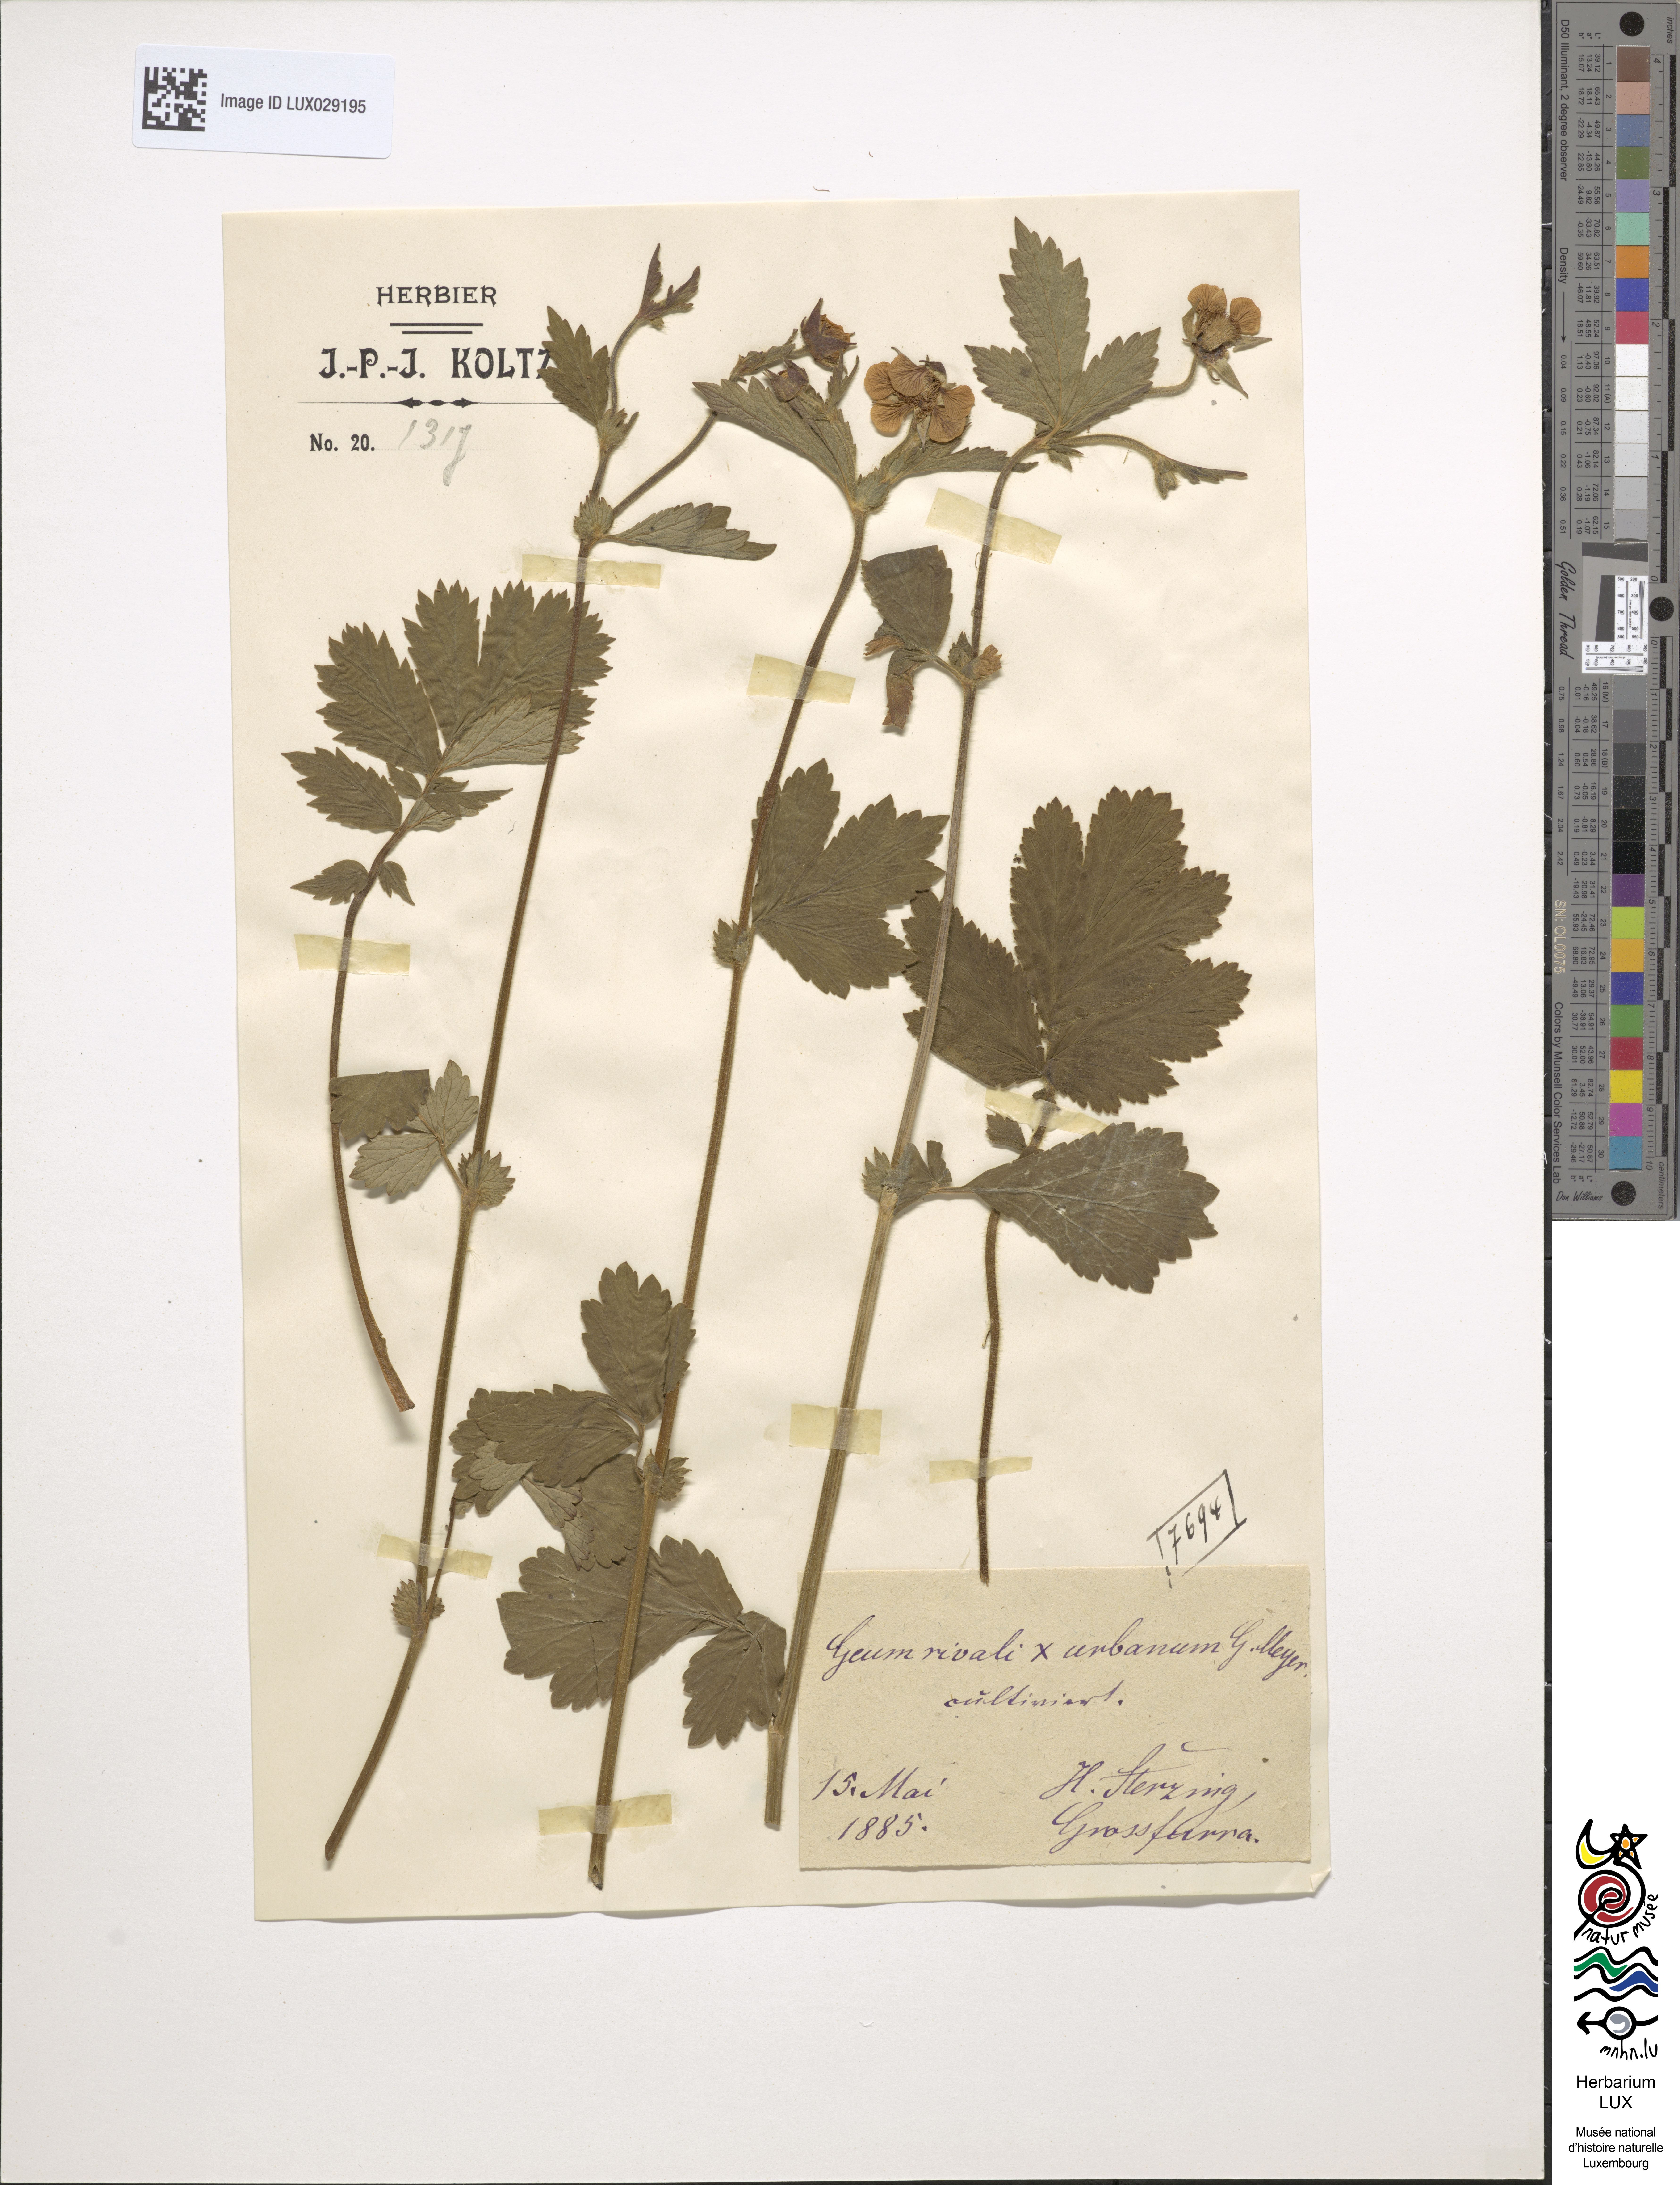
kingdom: Plantae
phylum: Tracheophyta
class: Magnoliopsida
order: Rosales
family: Rosaceae
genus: Geum
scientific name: Geum intermedium
